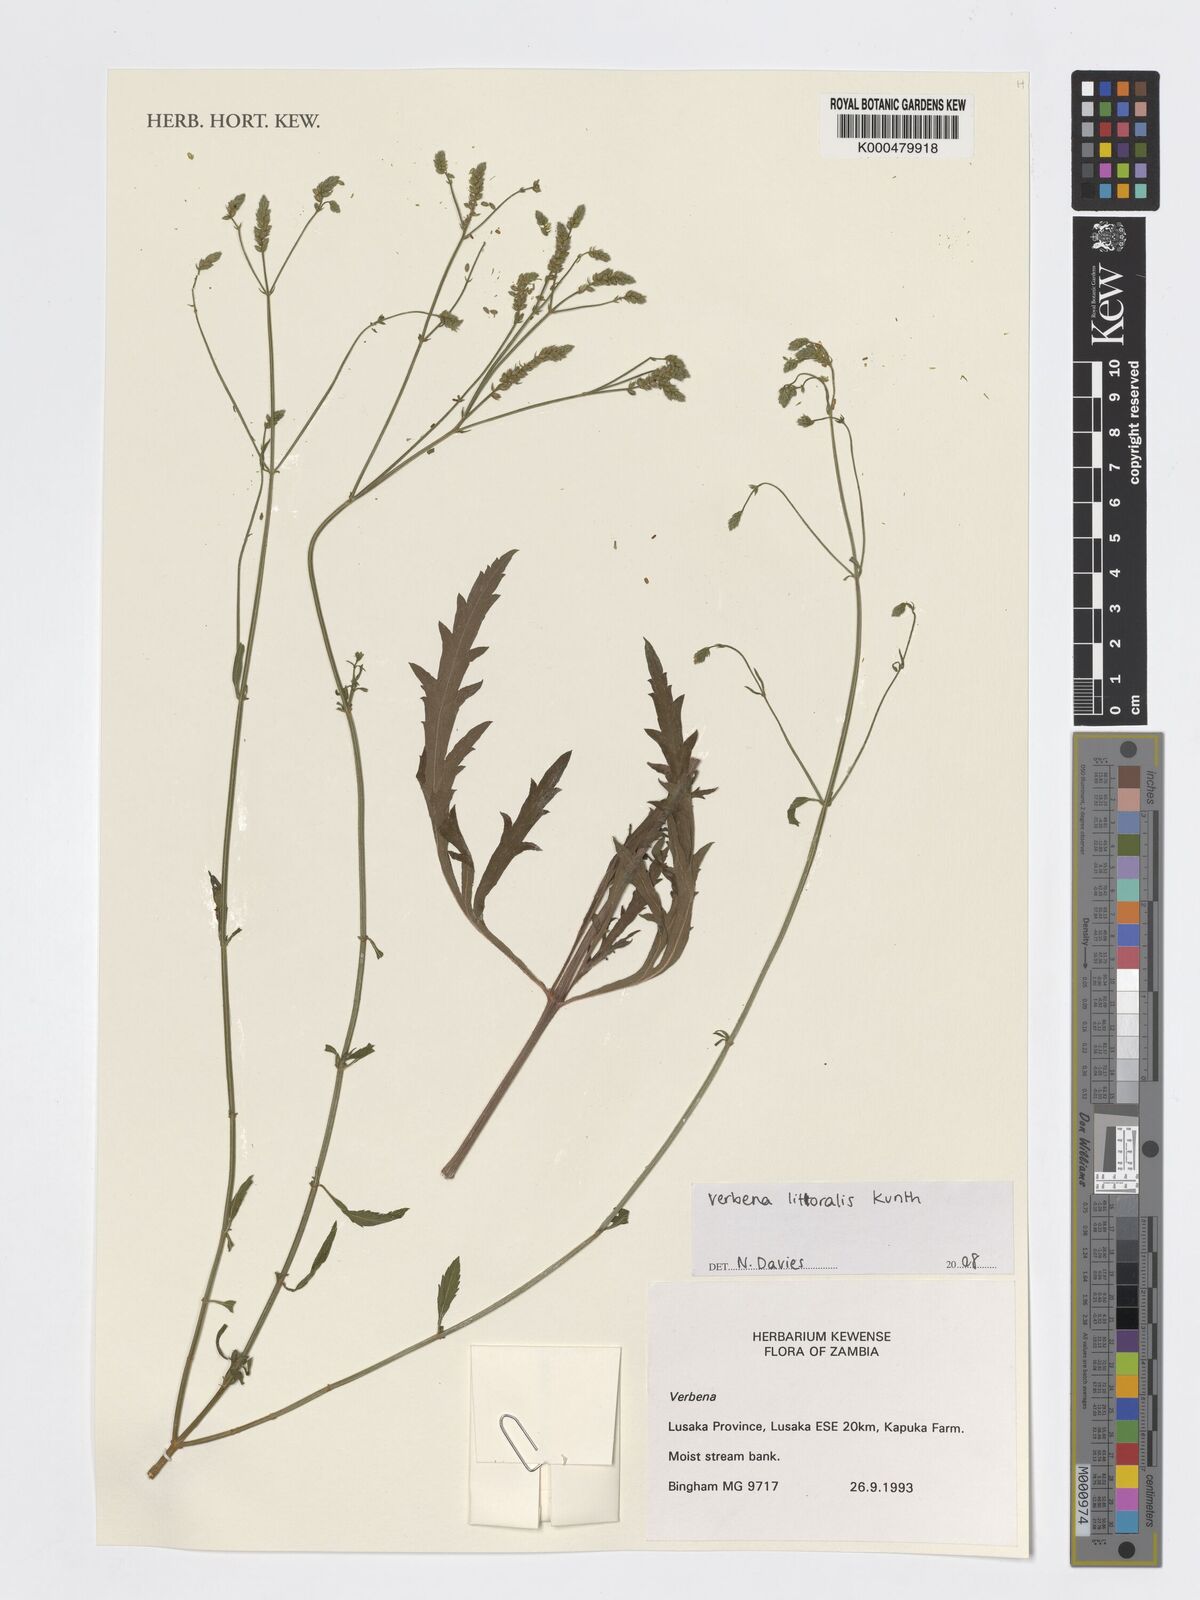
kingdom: Plantae
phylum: Tracheophyta
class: Magnoliopsida
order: Lamiales
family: Verbenaceae
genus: Verbena
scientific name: Verbena litoralis
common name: Seashore vervain
